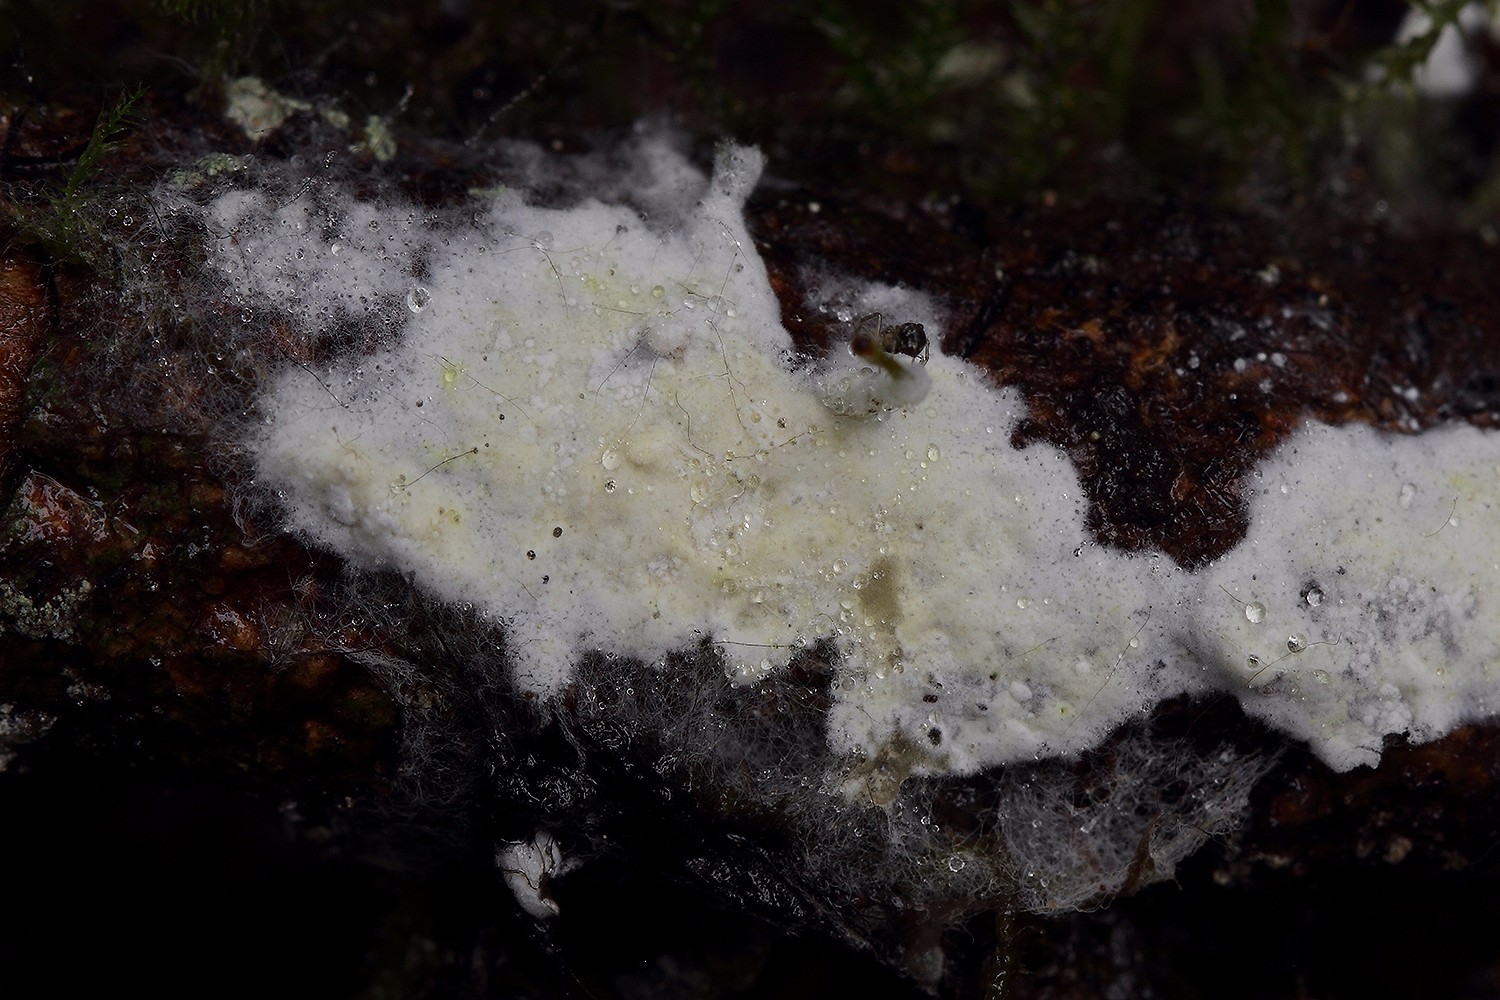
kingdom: Fungi
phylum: Basidiomycota
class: Agaricomycetes
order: Atheliales
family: Atheliaceae
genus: Amphinema
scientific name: Amphinema byssoides
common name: almindelig rodhinde
